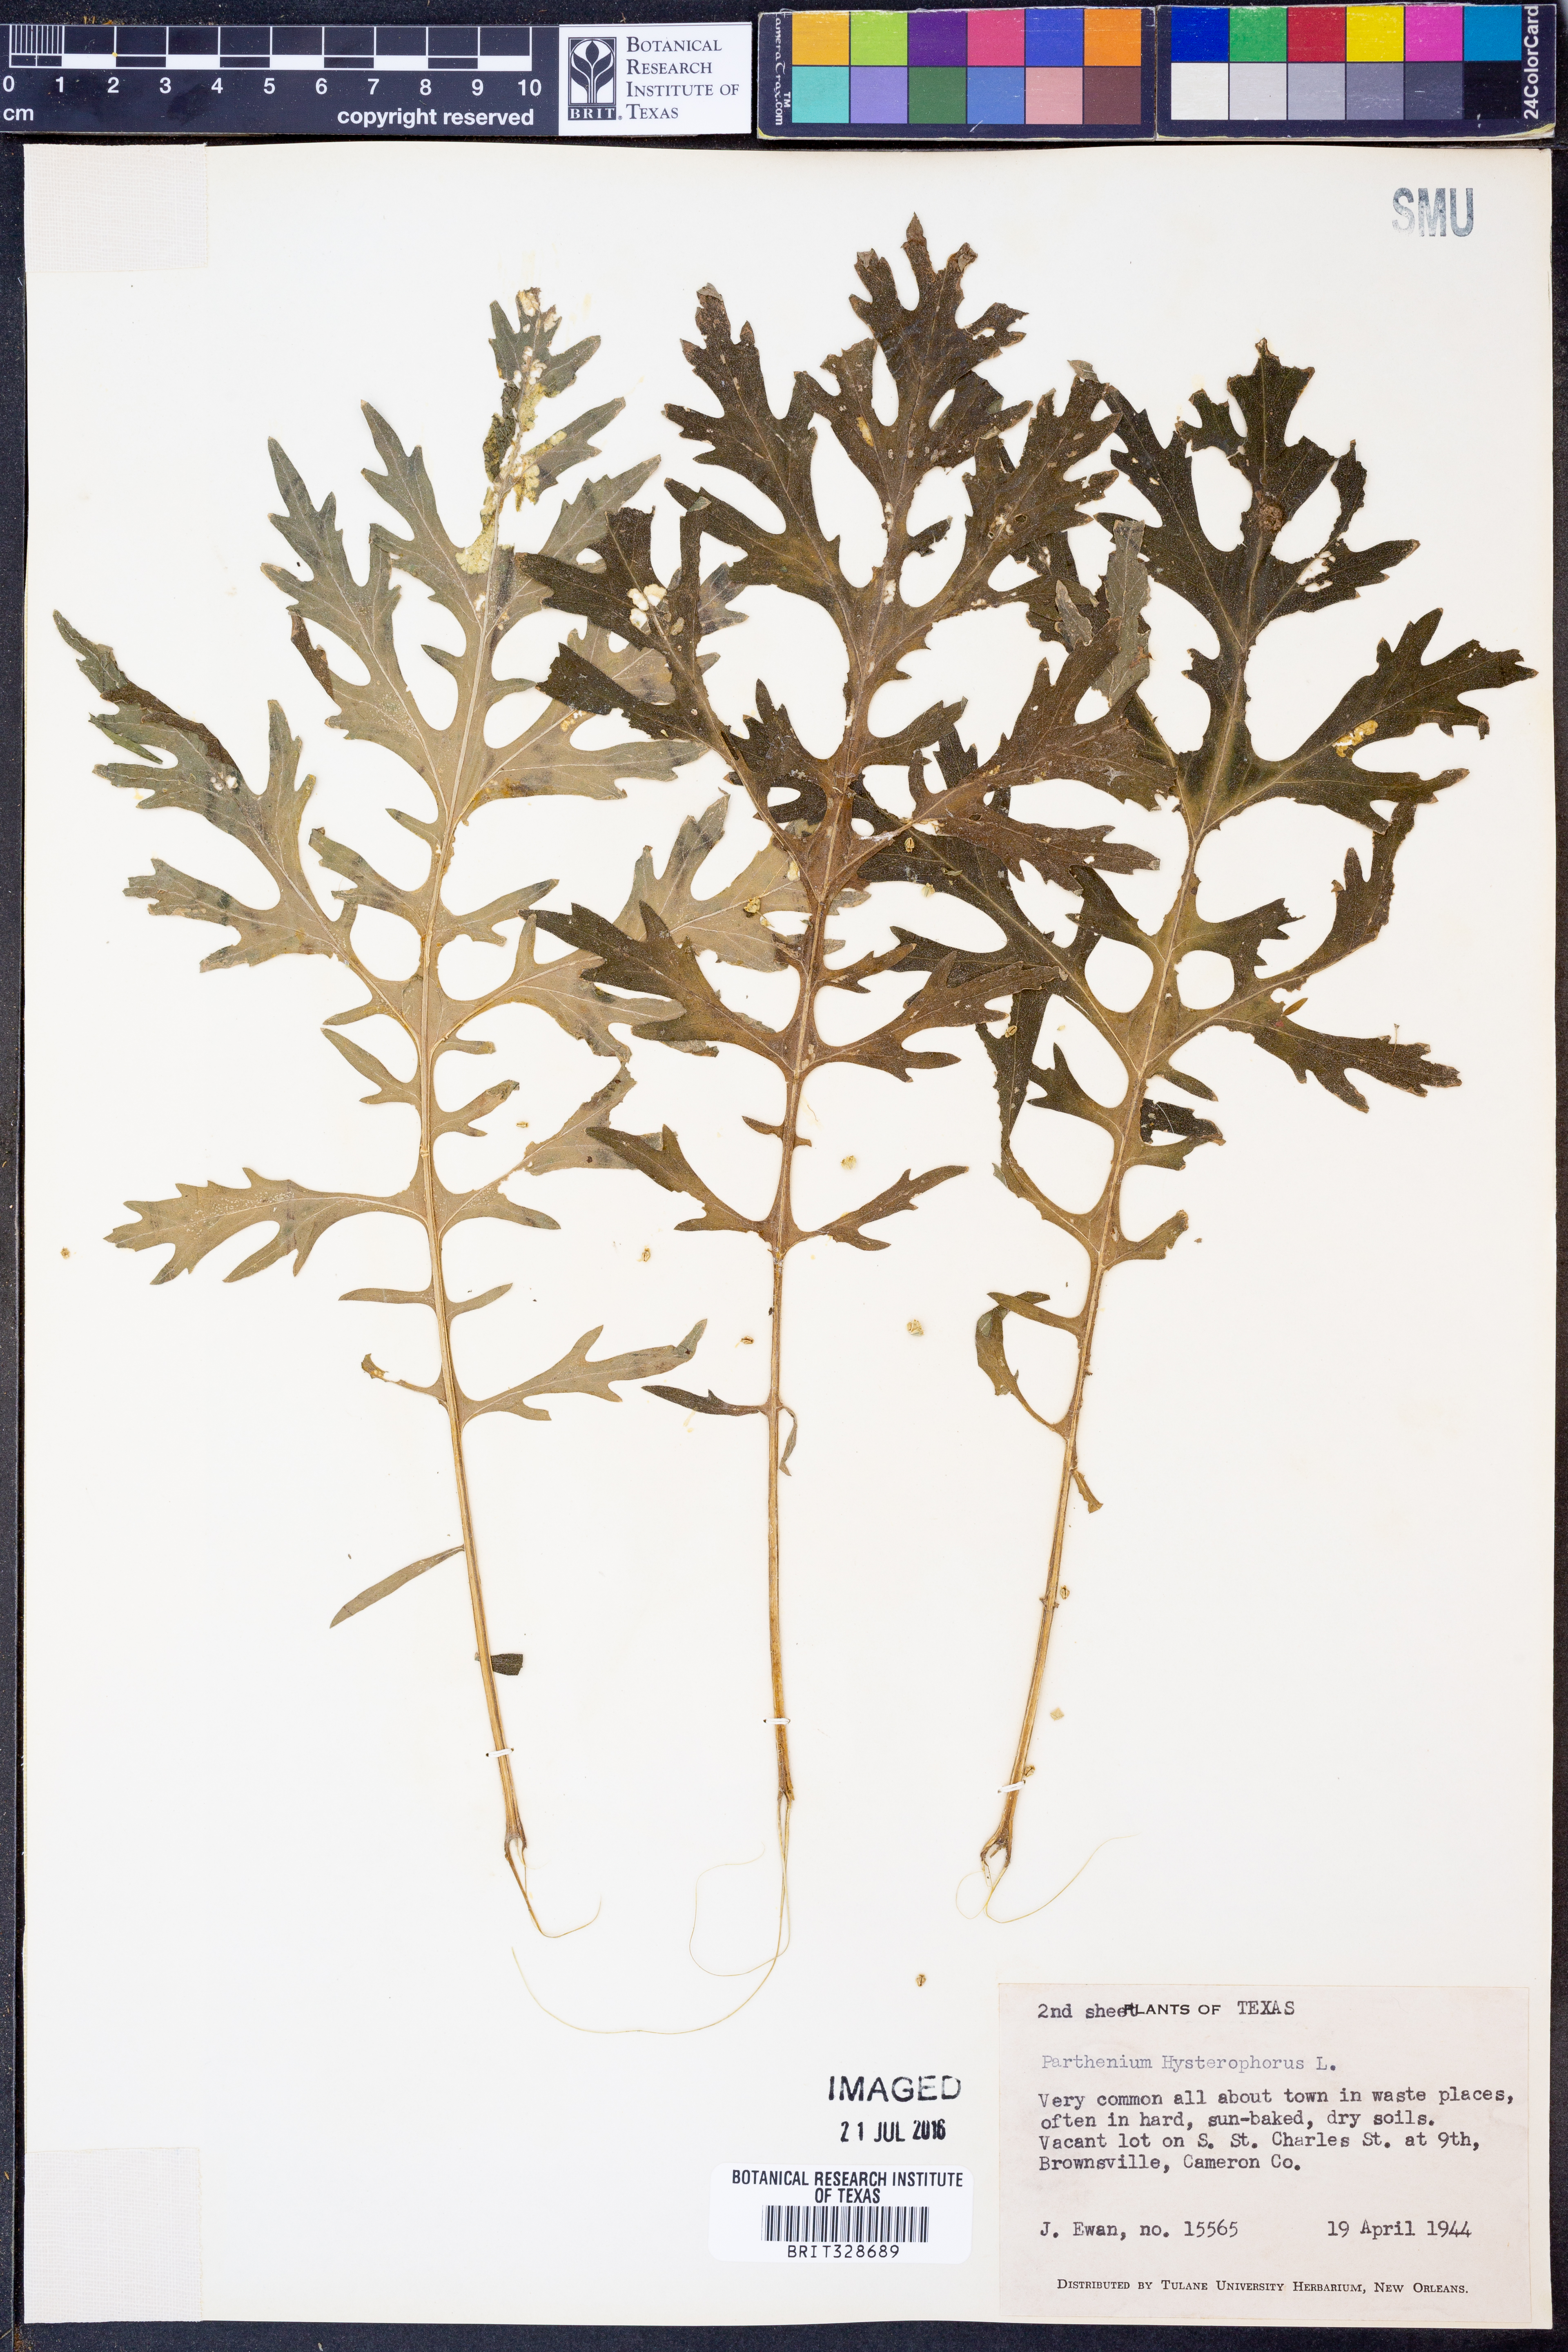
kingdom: Plantae
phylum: Tracheophyta
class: Magnoliopsida
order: Asterales
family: Asteraceae
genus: Parthenium
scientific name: Parthenium hysterophorus
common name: Santa maria feverfew
